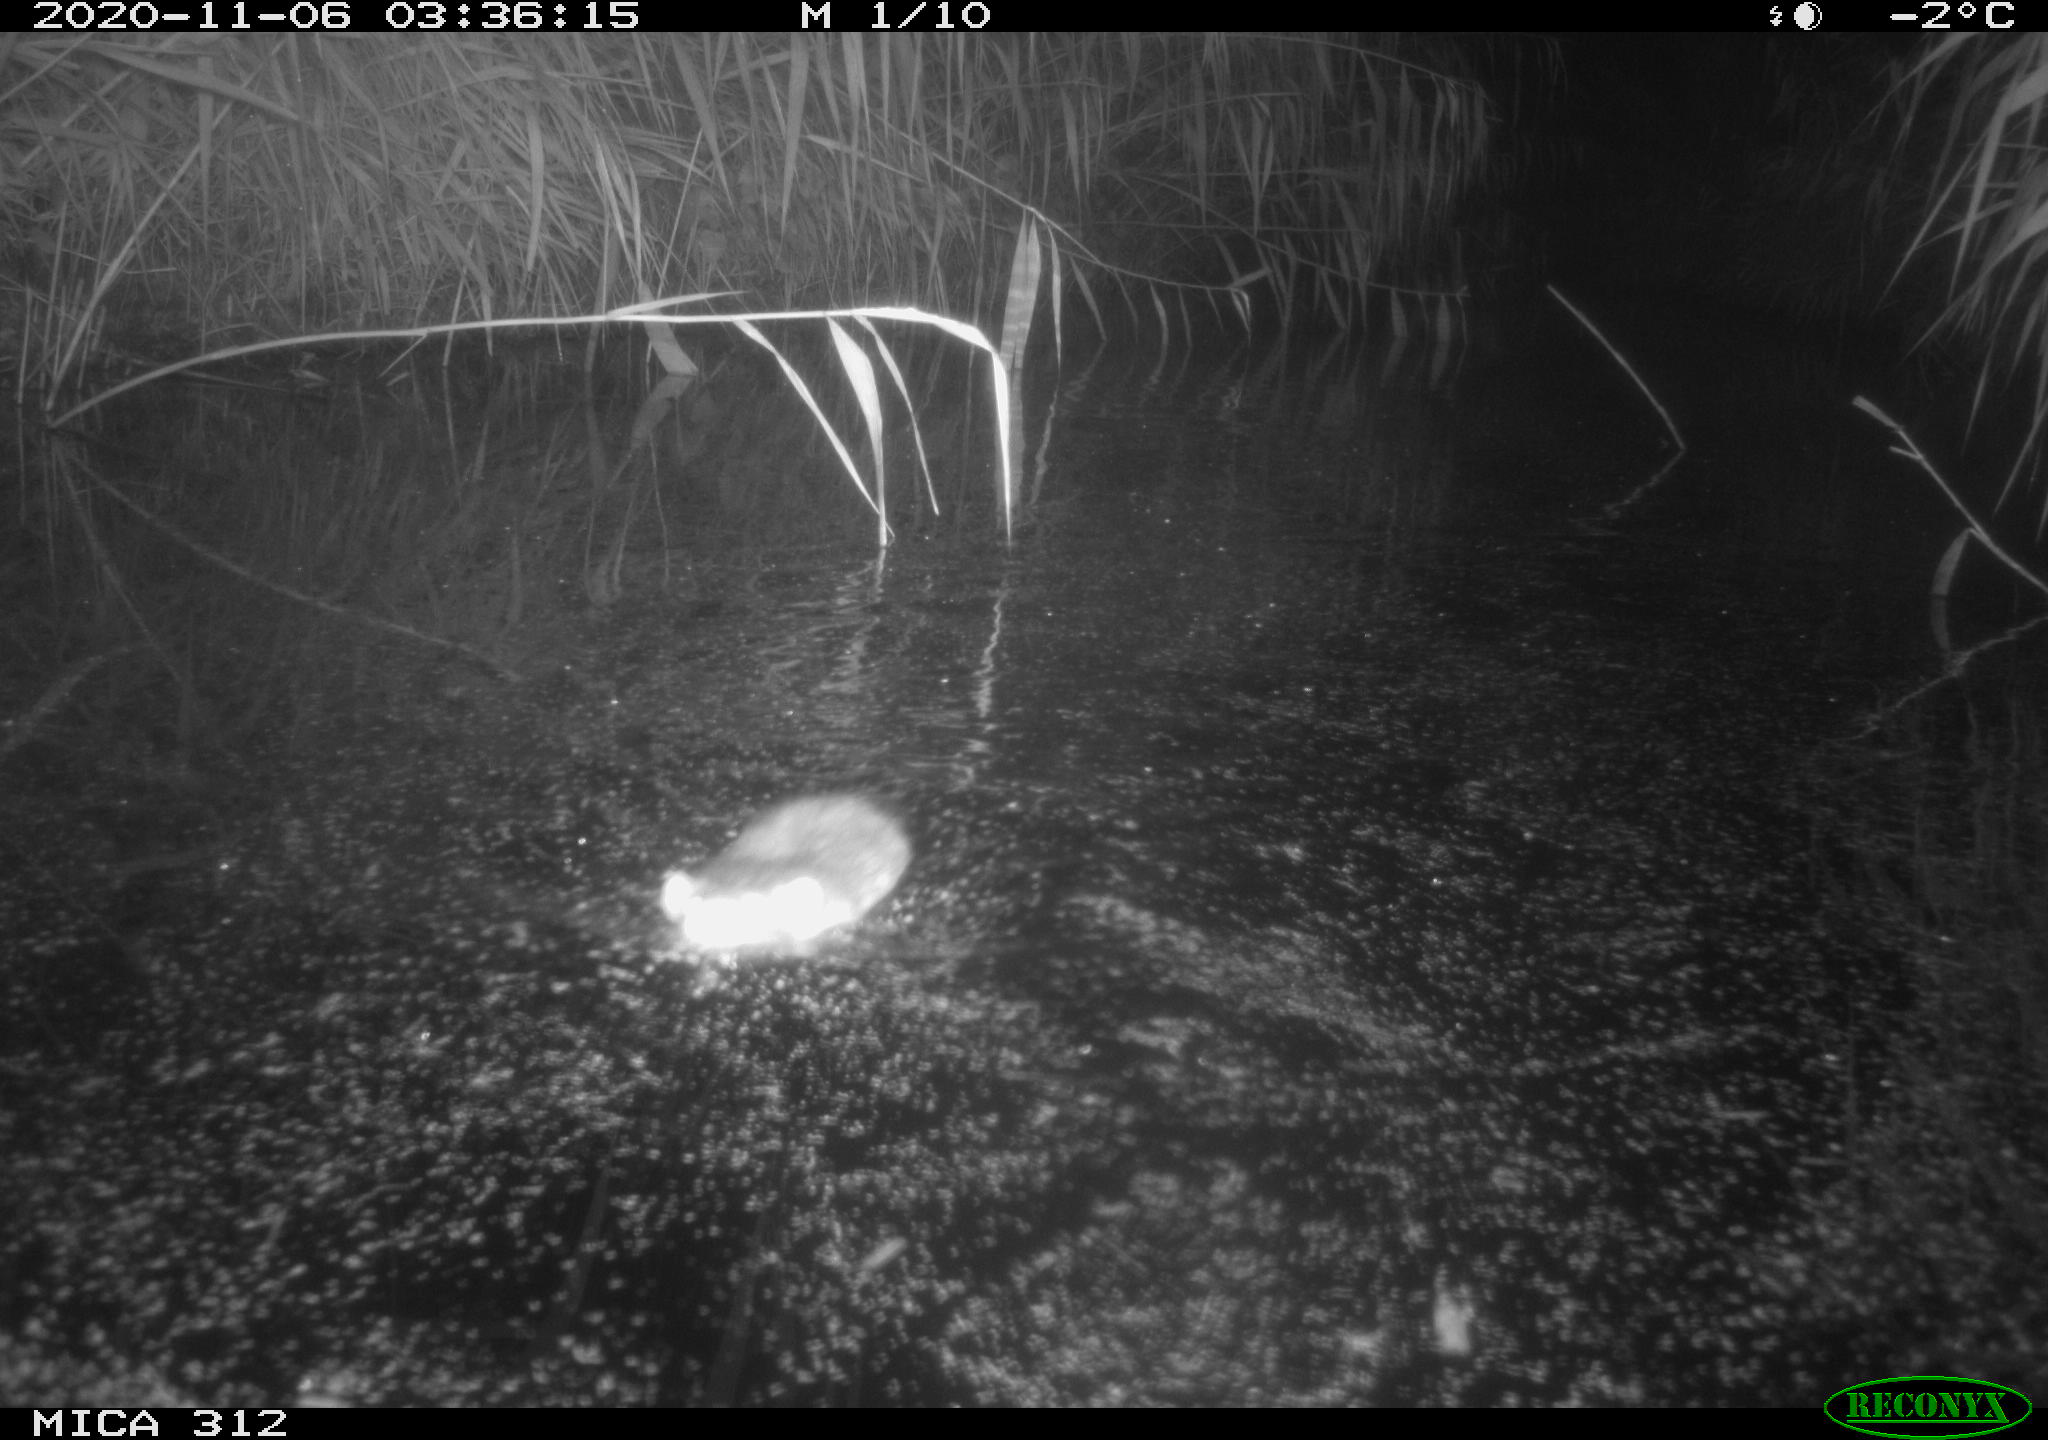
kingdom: Animalia
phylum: Chordata
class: Mammalia
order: Rodentia
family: Muridae
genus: Rattus
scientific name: Rattus norvegicus
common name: Brown rat
